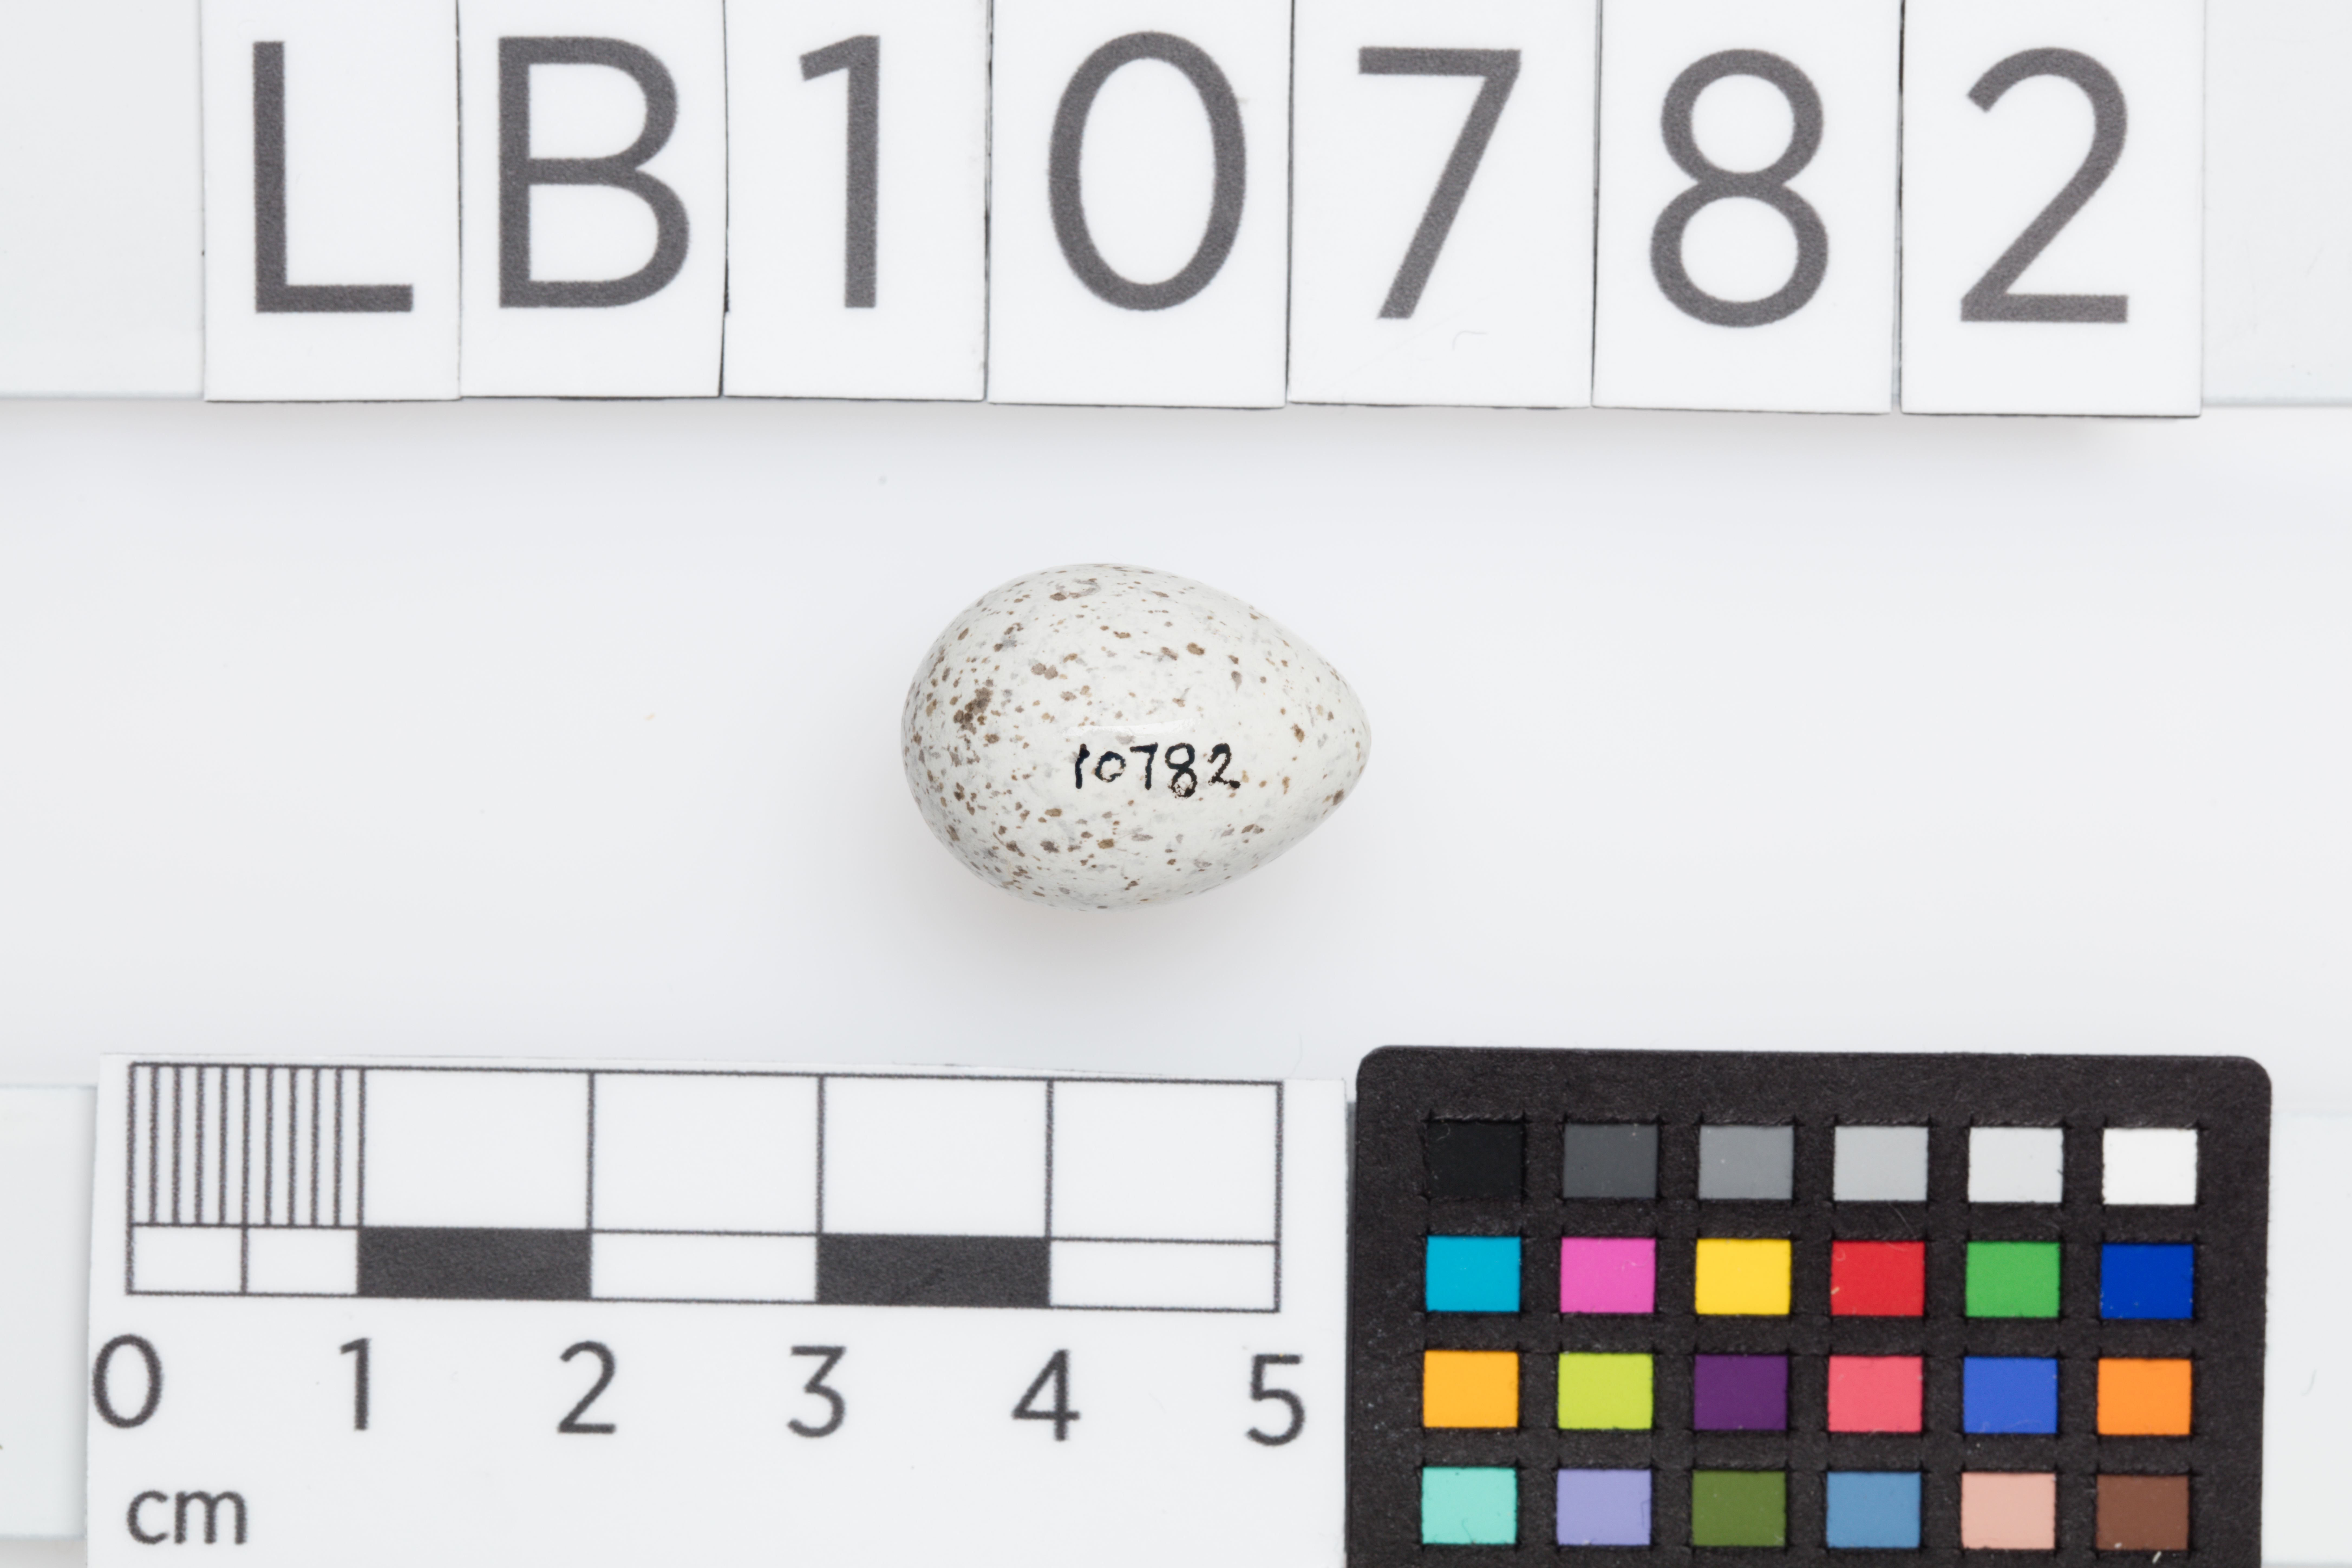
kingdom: Animalia
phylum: Chordata
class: Aves
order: Passeriformes
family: Motacillidae
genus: Motacilla
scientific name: Motacilla alba
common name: White wagtail
